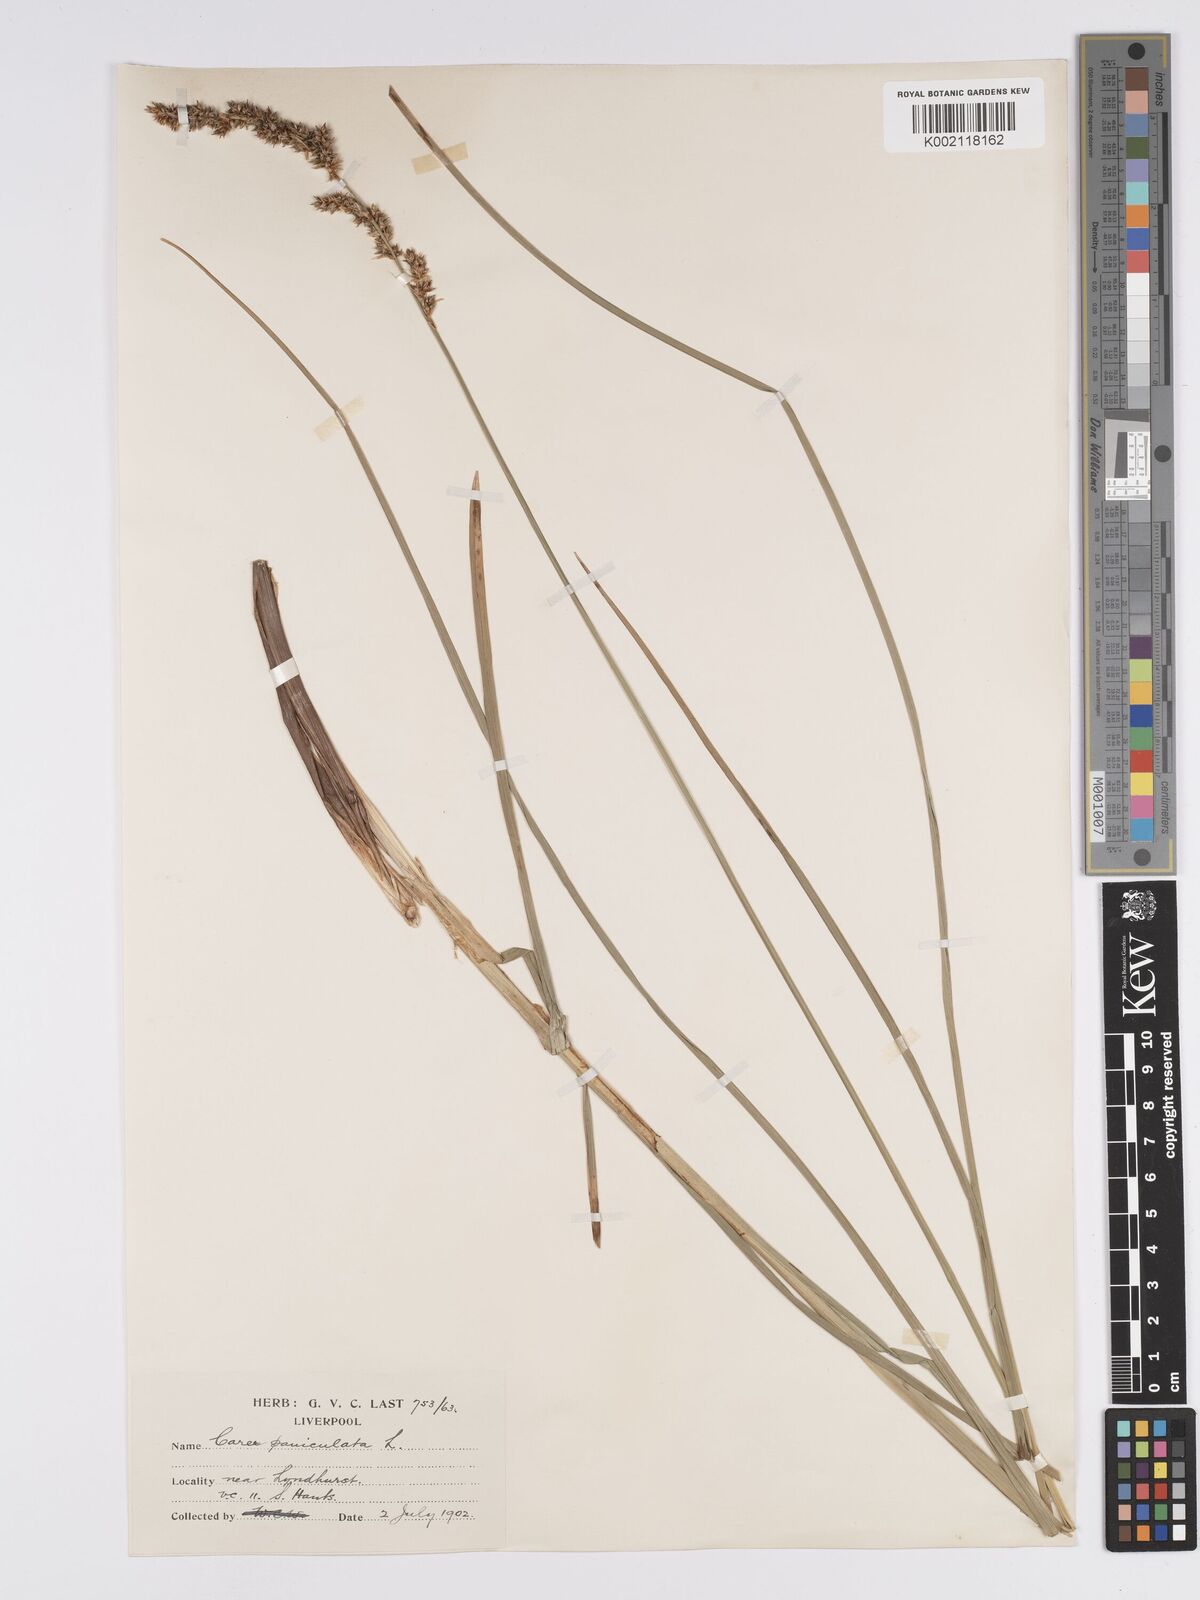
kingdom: Plantae
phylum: Tracheophyta
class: Liliopsida
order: Poales
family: Cyperaceae
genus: Carex
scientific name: Carex paniculata
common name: Greater tussock-sedge
